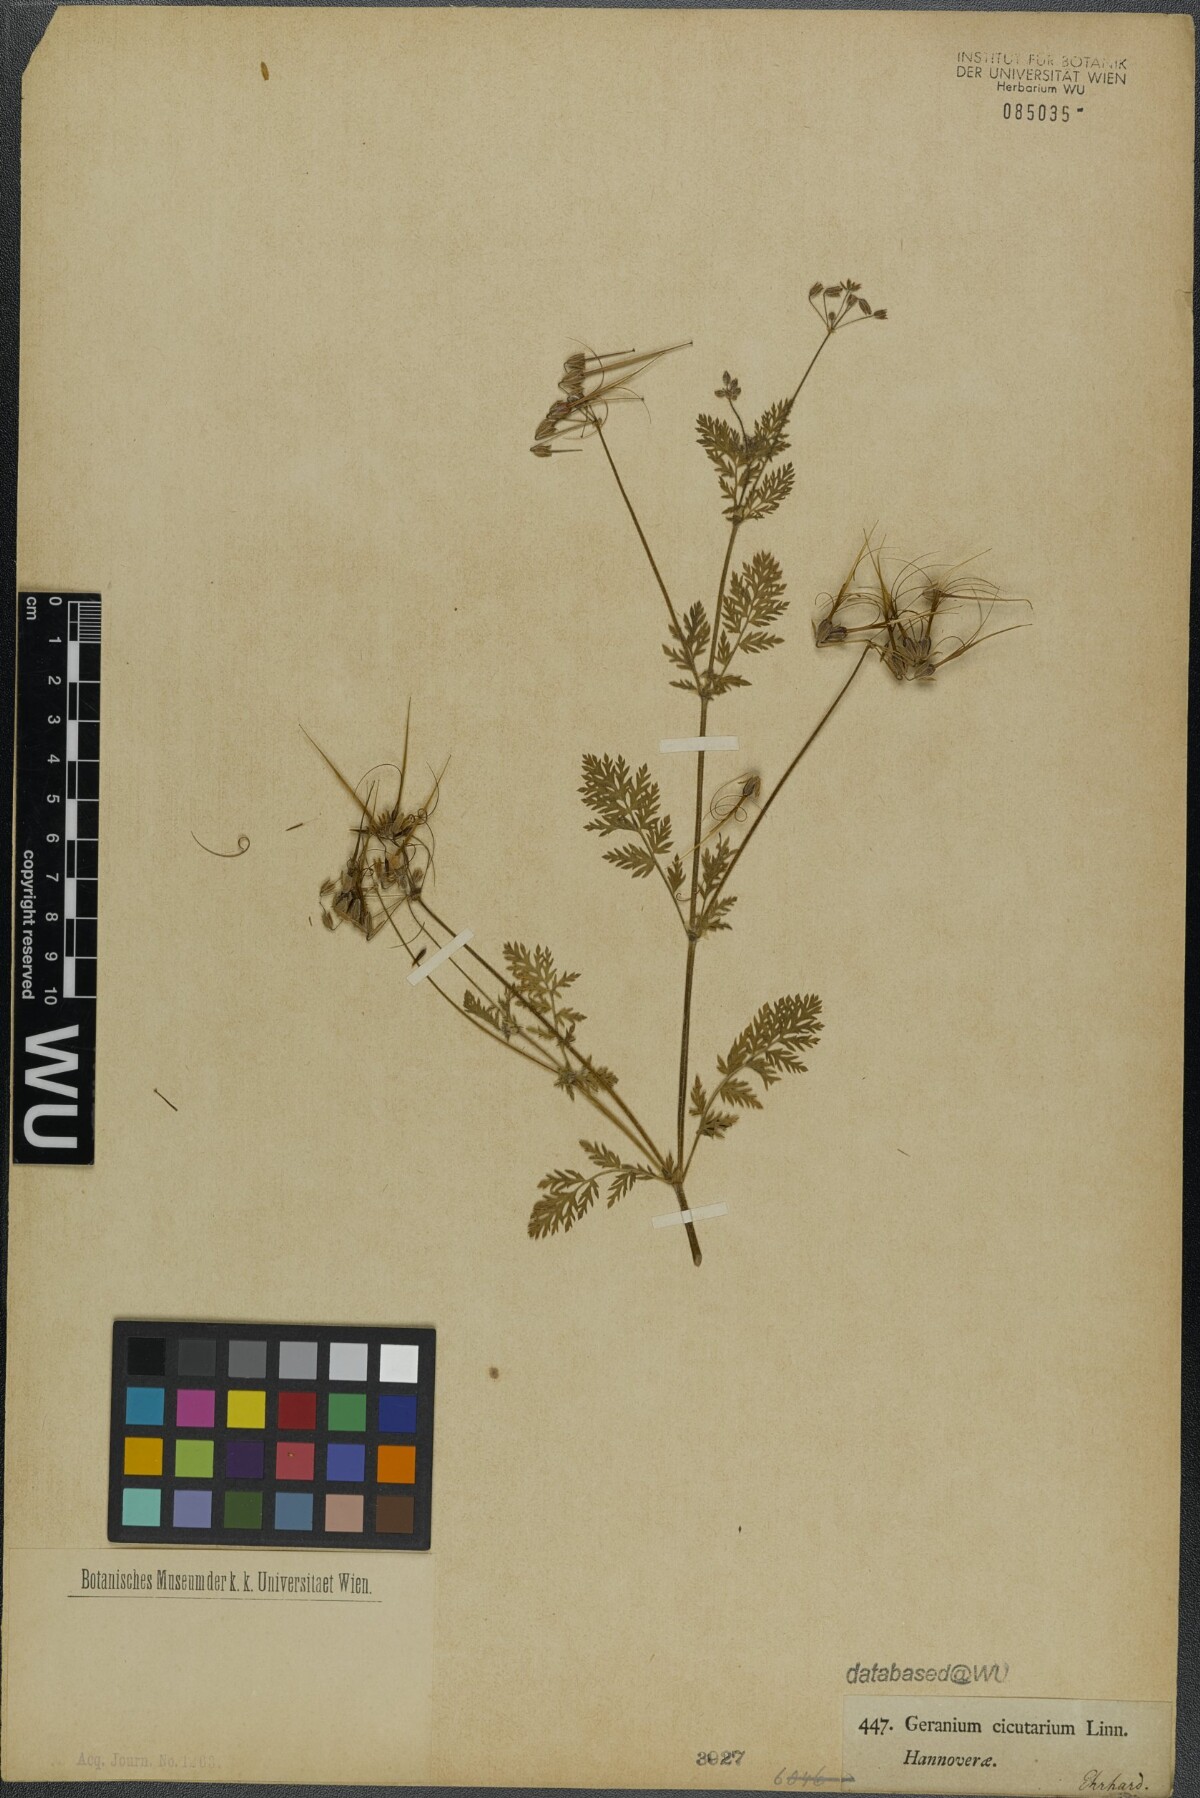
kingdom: Plantae
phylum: Tracheophyta
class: Magnoliopsida
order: Geraniales
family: Geraniaceae
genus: Erodium
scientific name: Erodium cicutarium
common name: Common stork's-bill
